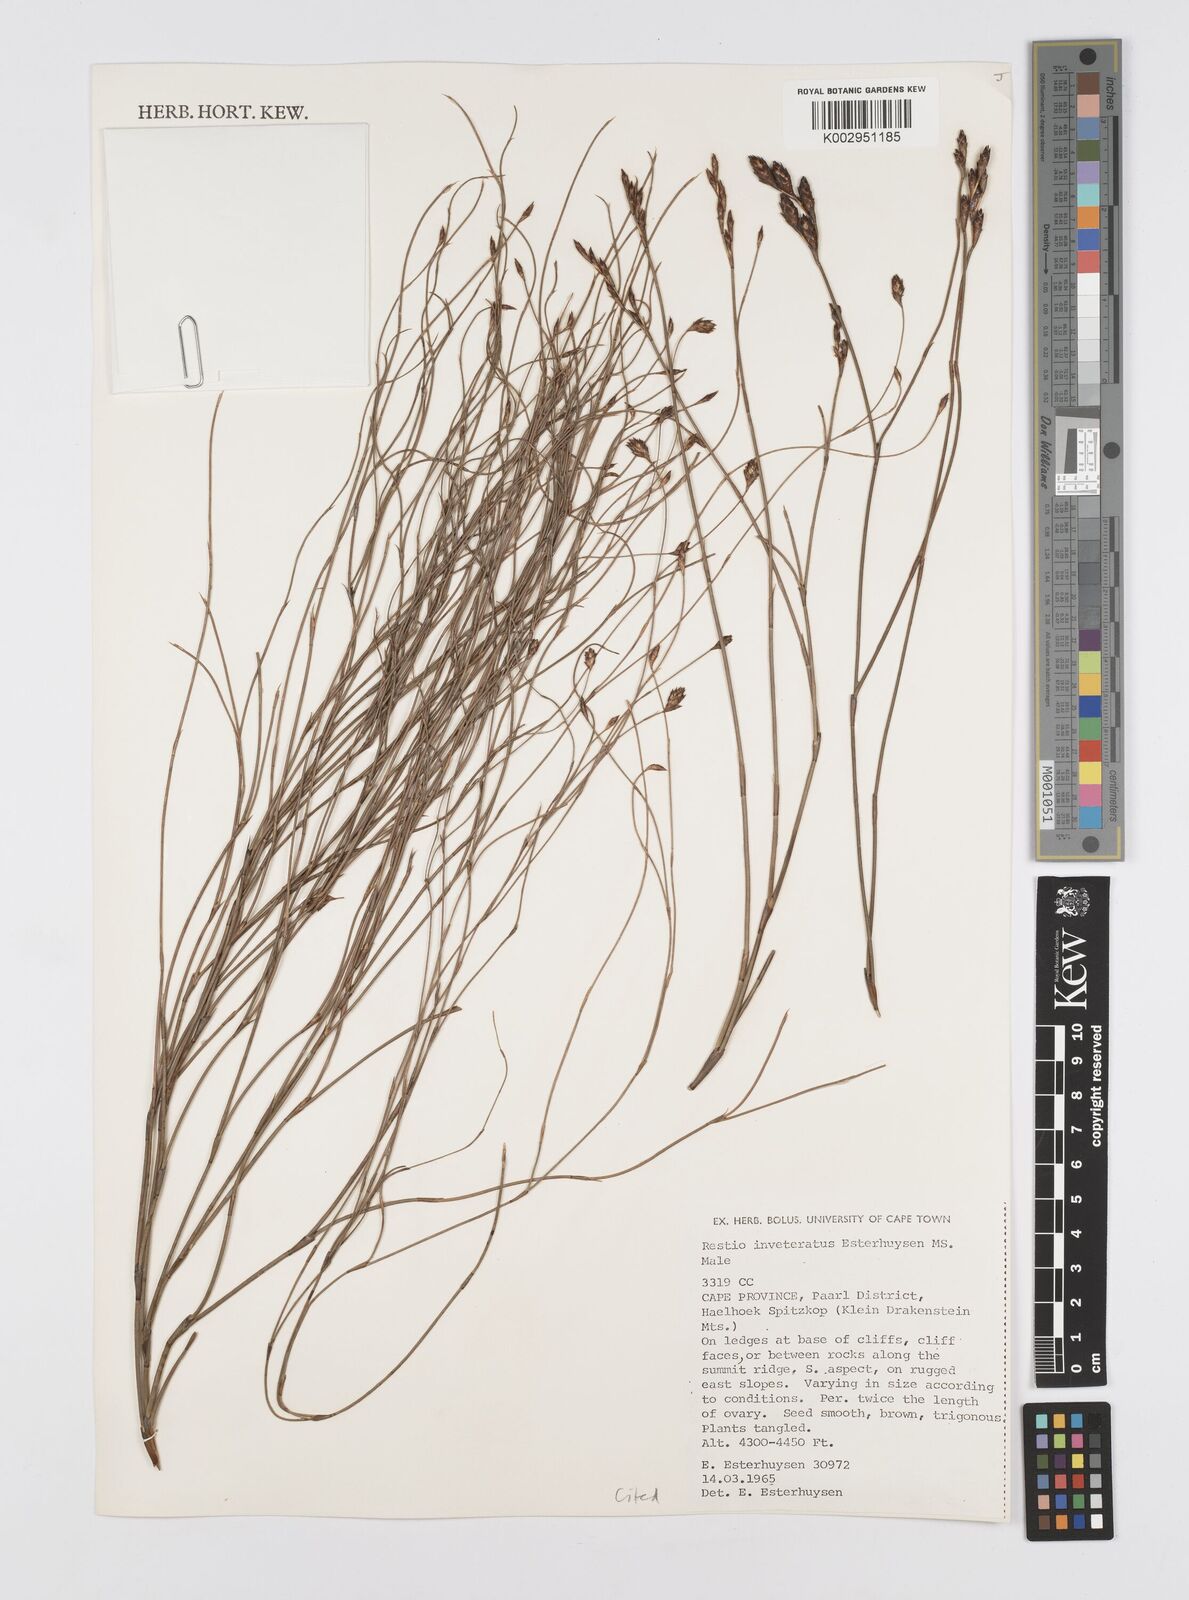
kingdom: Plantae
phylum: Tracheophyta
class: Liliopsida
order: Poales
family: Restionaceae
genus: Restio
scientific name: Restio inveteratus
